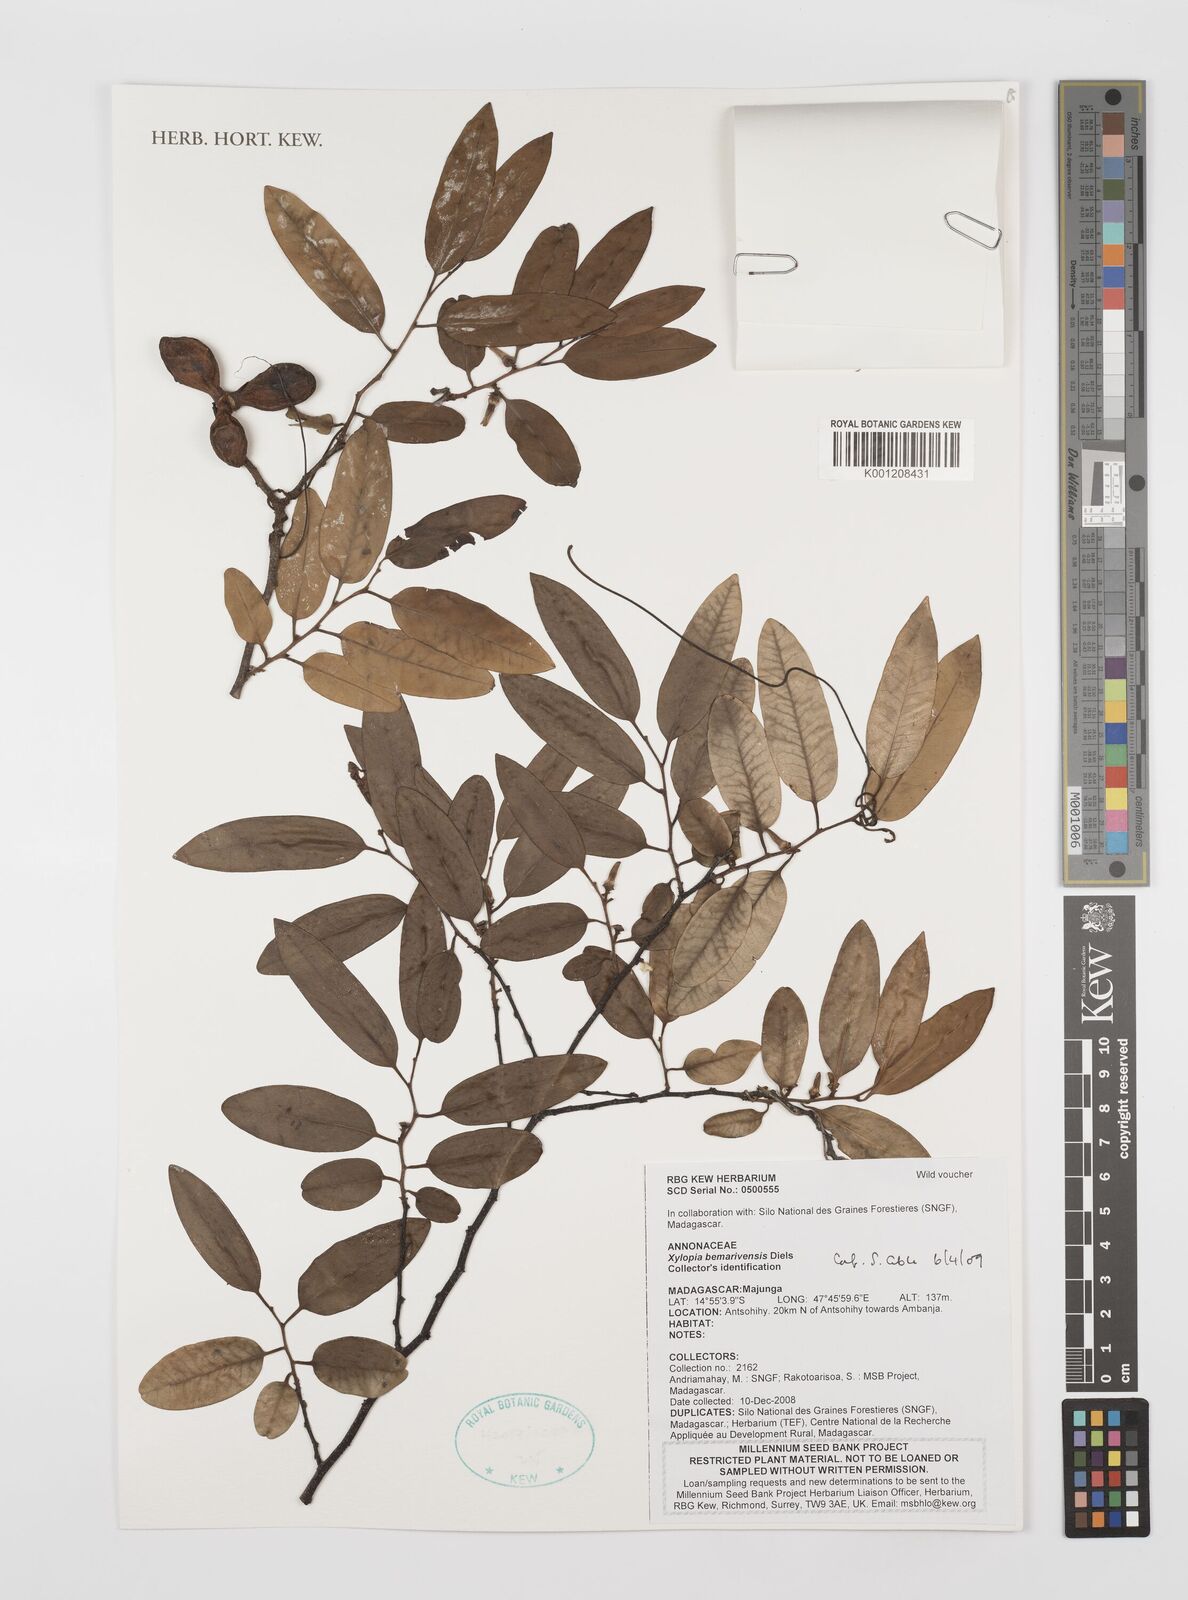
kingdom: Plantae
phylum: Tracheophyta
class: Magnoliopsida
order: Magnoliales
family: Annonaceae
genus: Xylopia
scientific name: Xylopia bemarivensis
